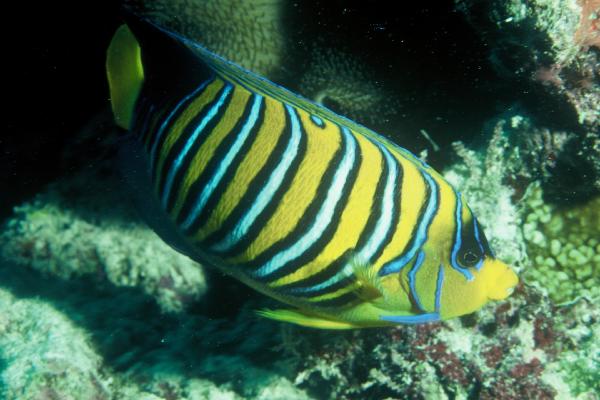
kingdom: Animalia
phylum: Chordata
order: Perciformes
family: Pomacanthidae
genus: Pygoplites
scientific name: Pygoplites diacanthus
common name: Regal angelfish
